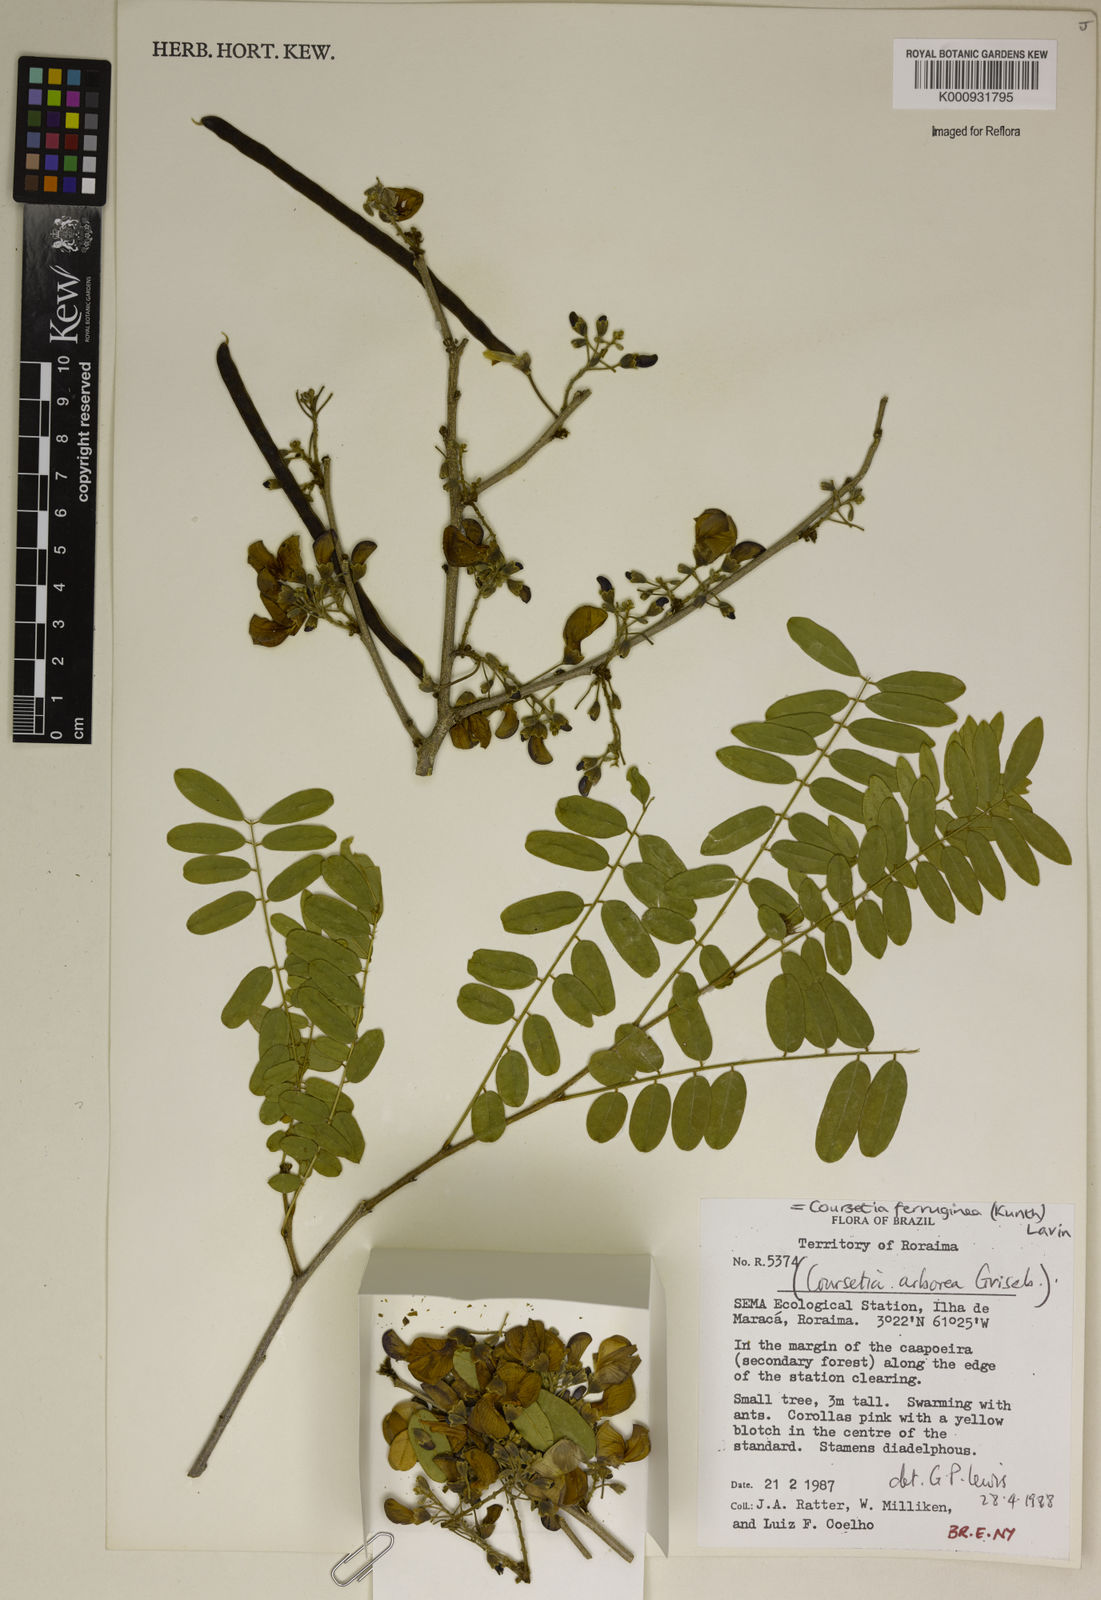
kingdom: Plantae
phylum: Tracheophyta
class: Magnoliopsida
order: Fabales
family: Fabaceae
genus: Coursetia
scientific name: Coursetia ferruginea
